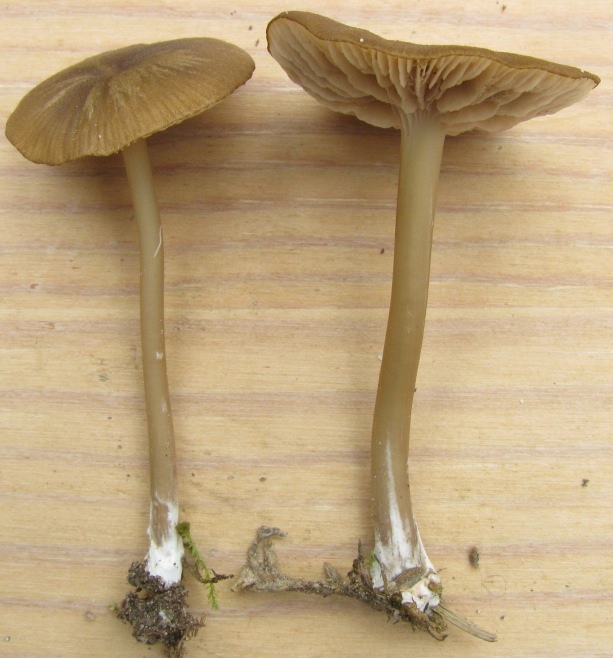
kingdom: Fungi
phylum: Basidiomycota
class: Agaricomycetes
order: Agaricales
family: Entolomataceae
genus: Entoloma
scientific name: Entoloma olivaceotinctum
